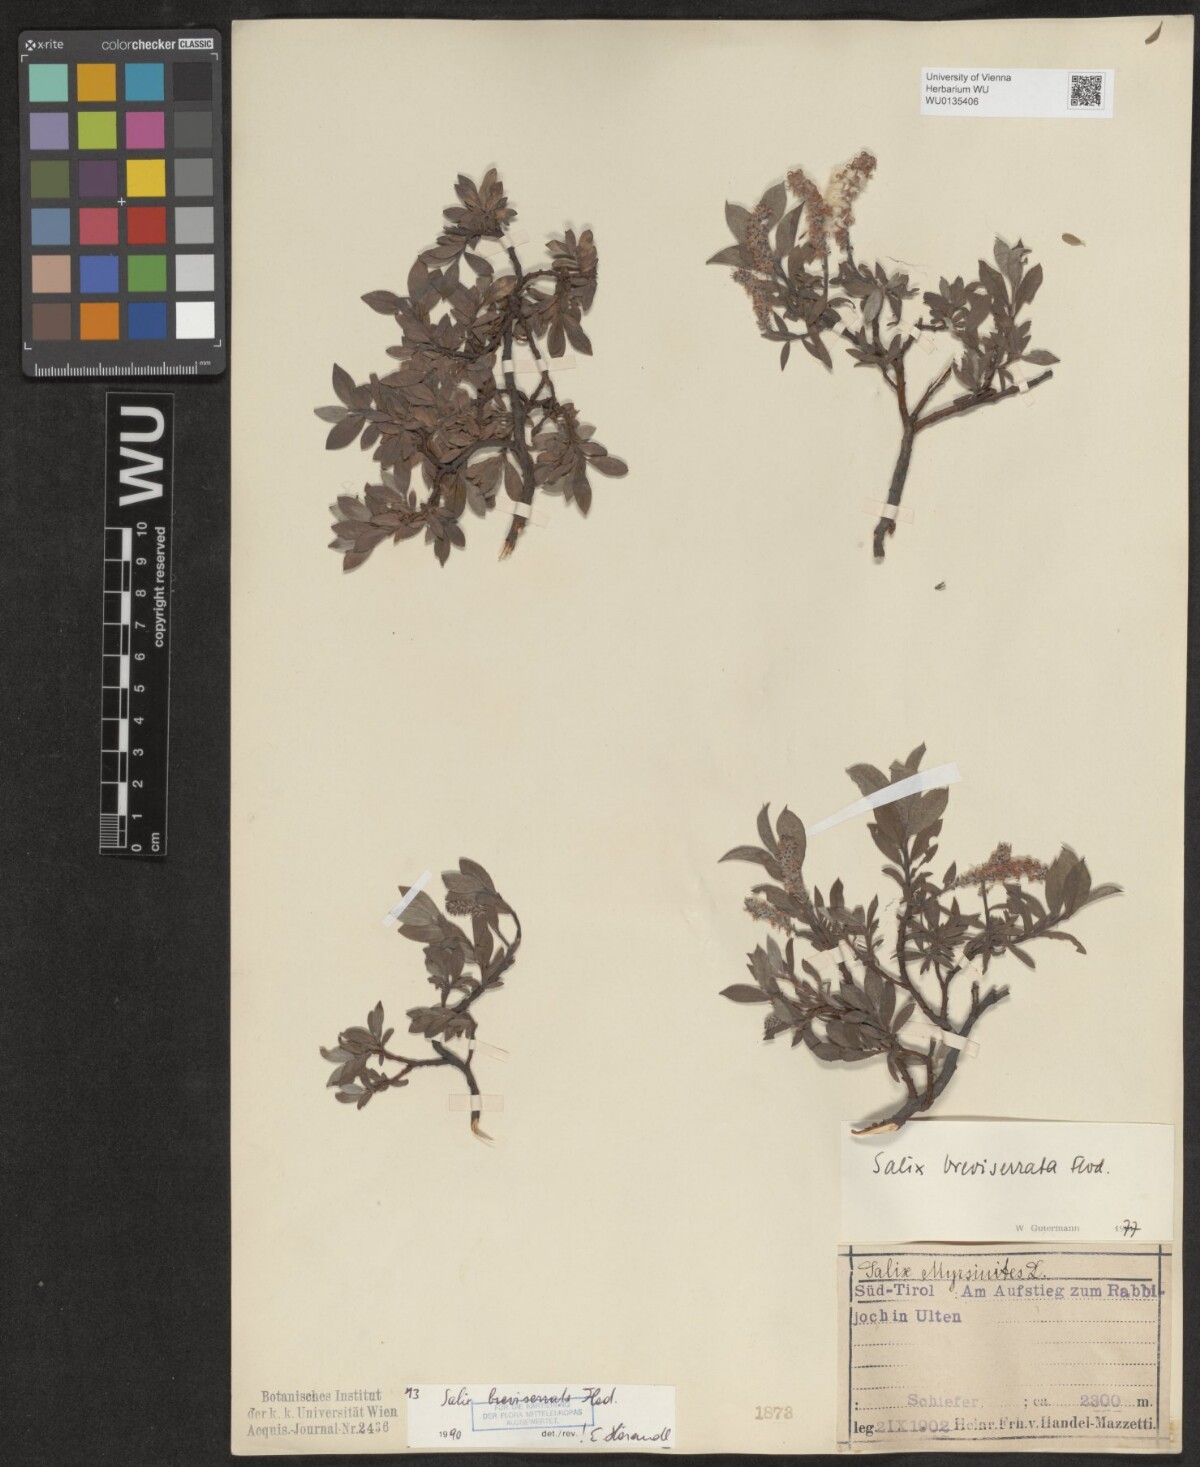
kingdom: Plantae
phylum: Tracheophyta
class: Magnoliopsida
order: Malpighiales
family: Salicaceae
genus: Salix
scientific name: Salix breviserrata
